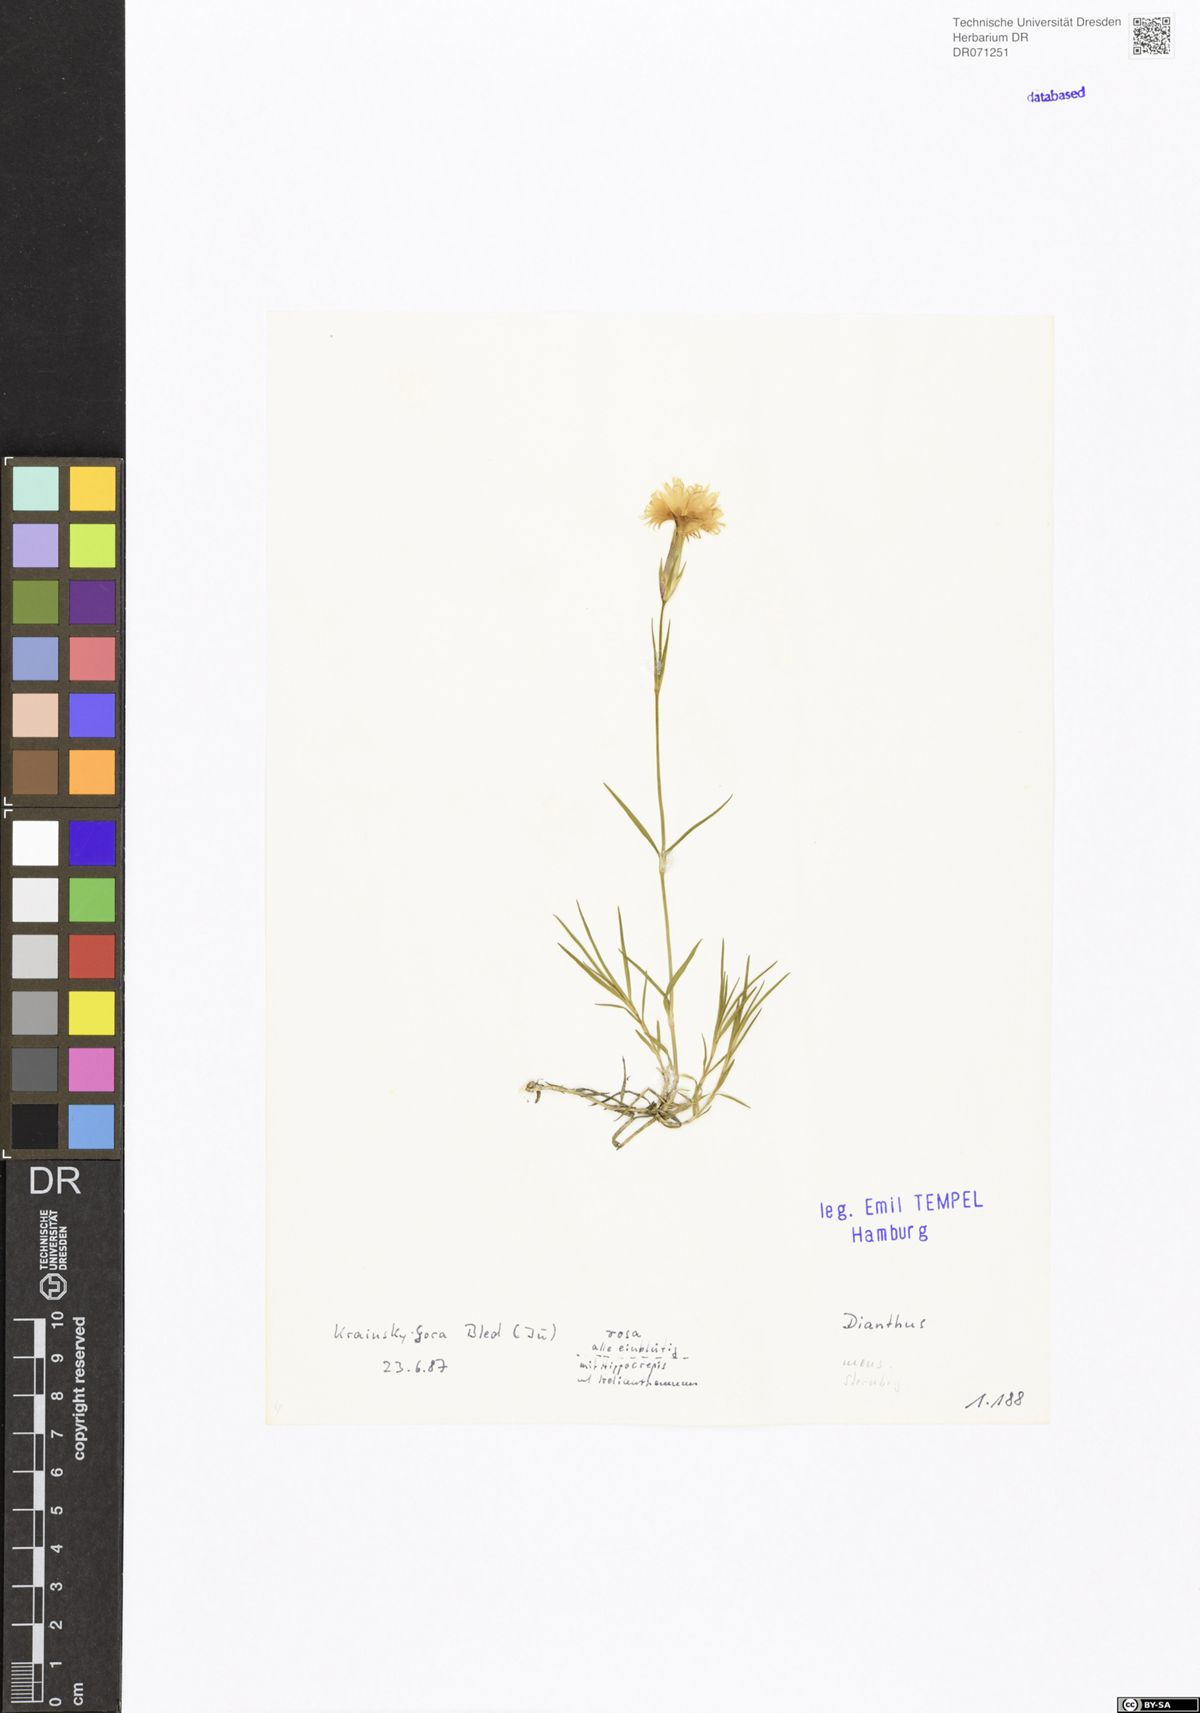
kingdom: Plantae
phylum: Tracheophyta
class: Magnoliopsida
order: Caryophyllales
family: Caryophyllaceae
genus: Dianthus
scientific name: Dianthus
